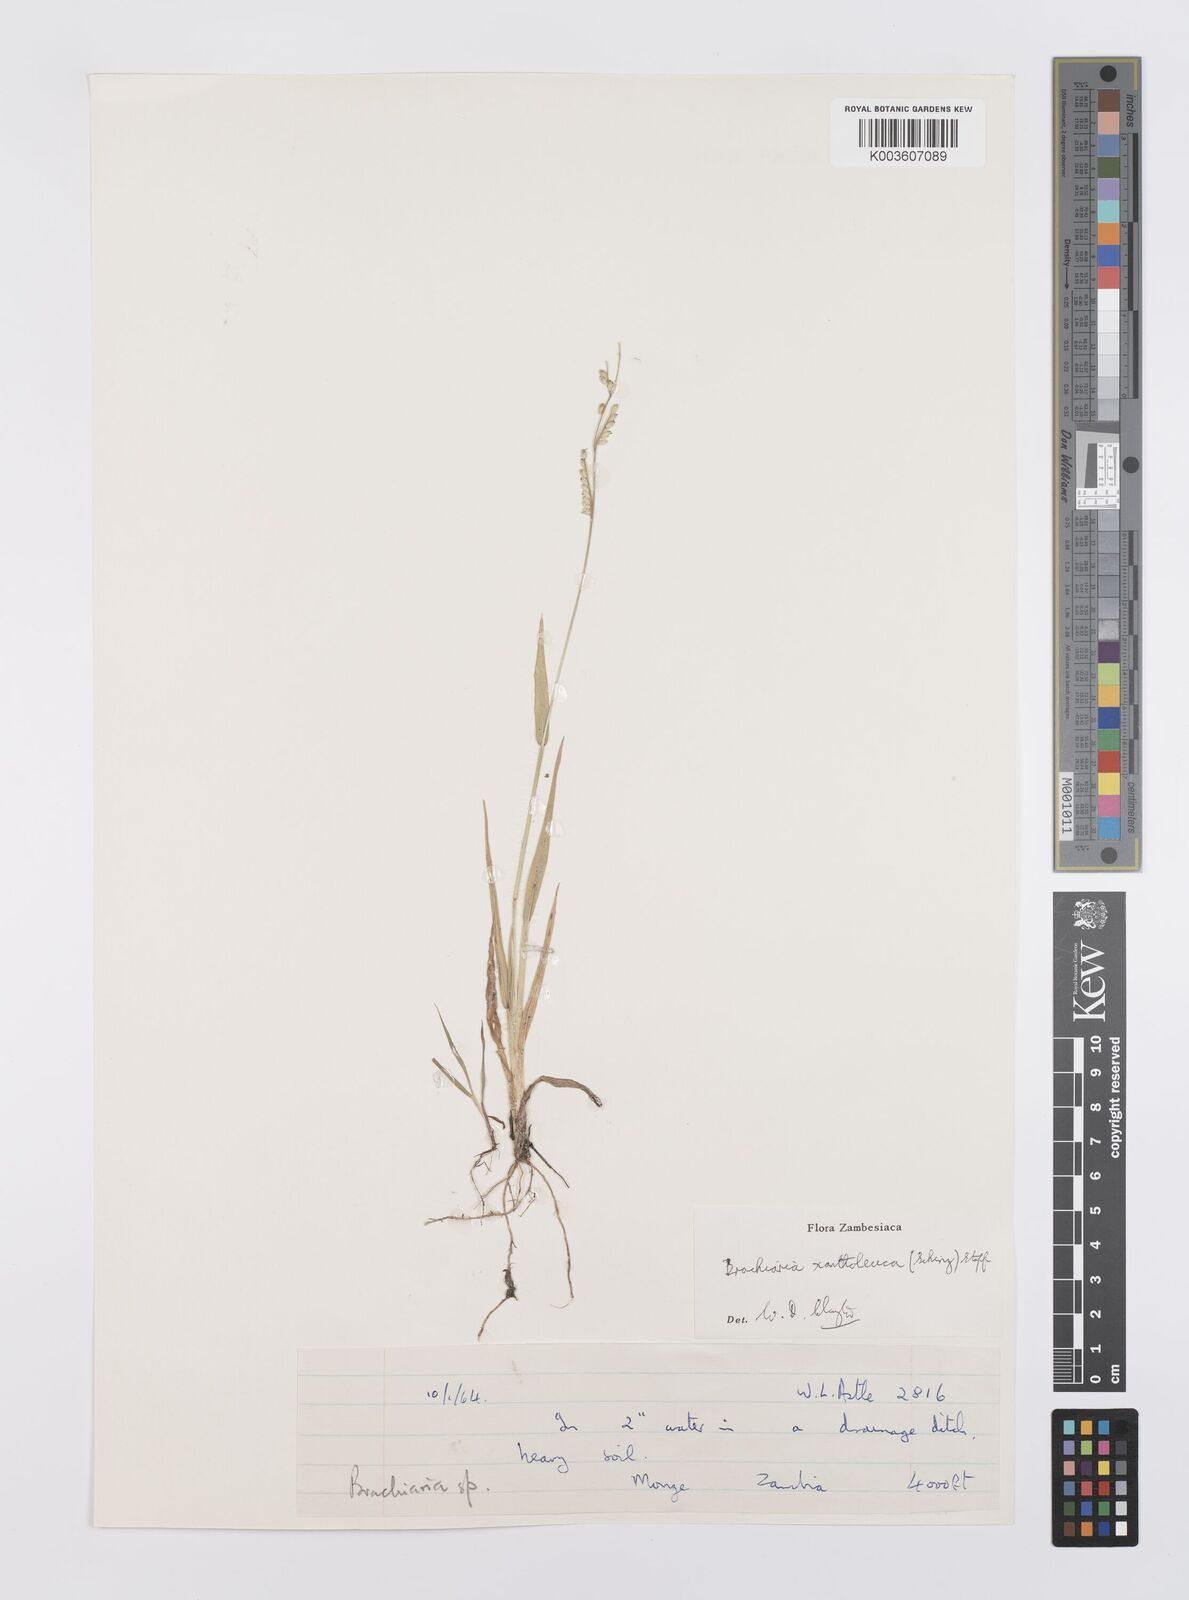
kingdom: Plantae
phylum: Tracheophyta
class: Liliopsida
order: Poales
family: Poaceae
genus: Urochloa
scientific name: Urochloa xantholeuca
